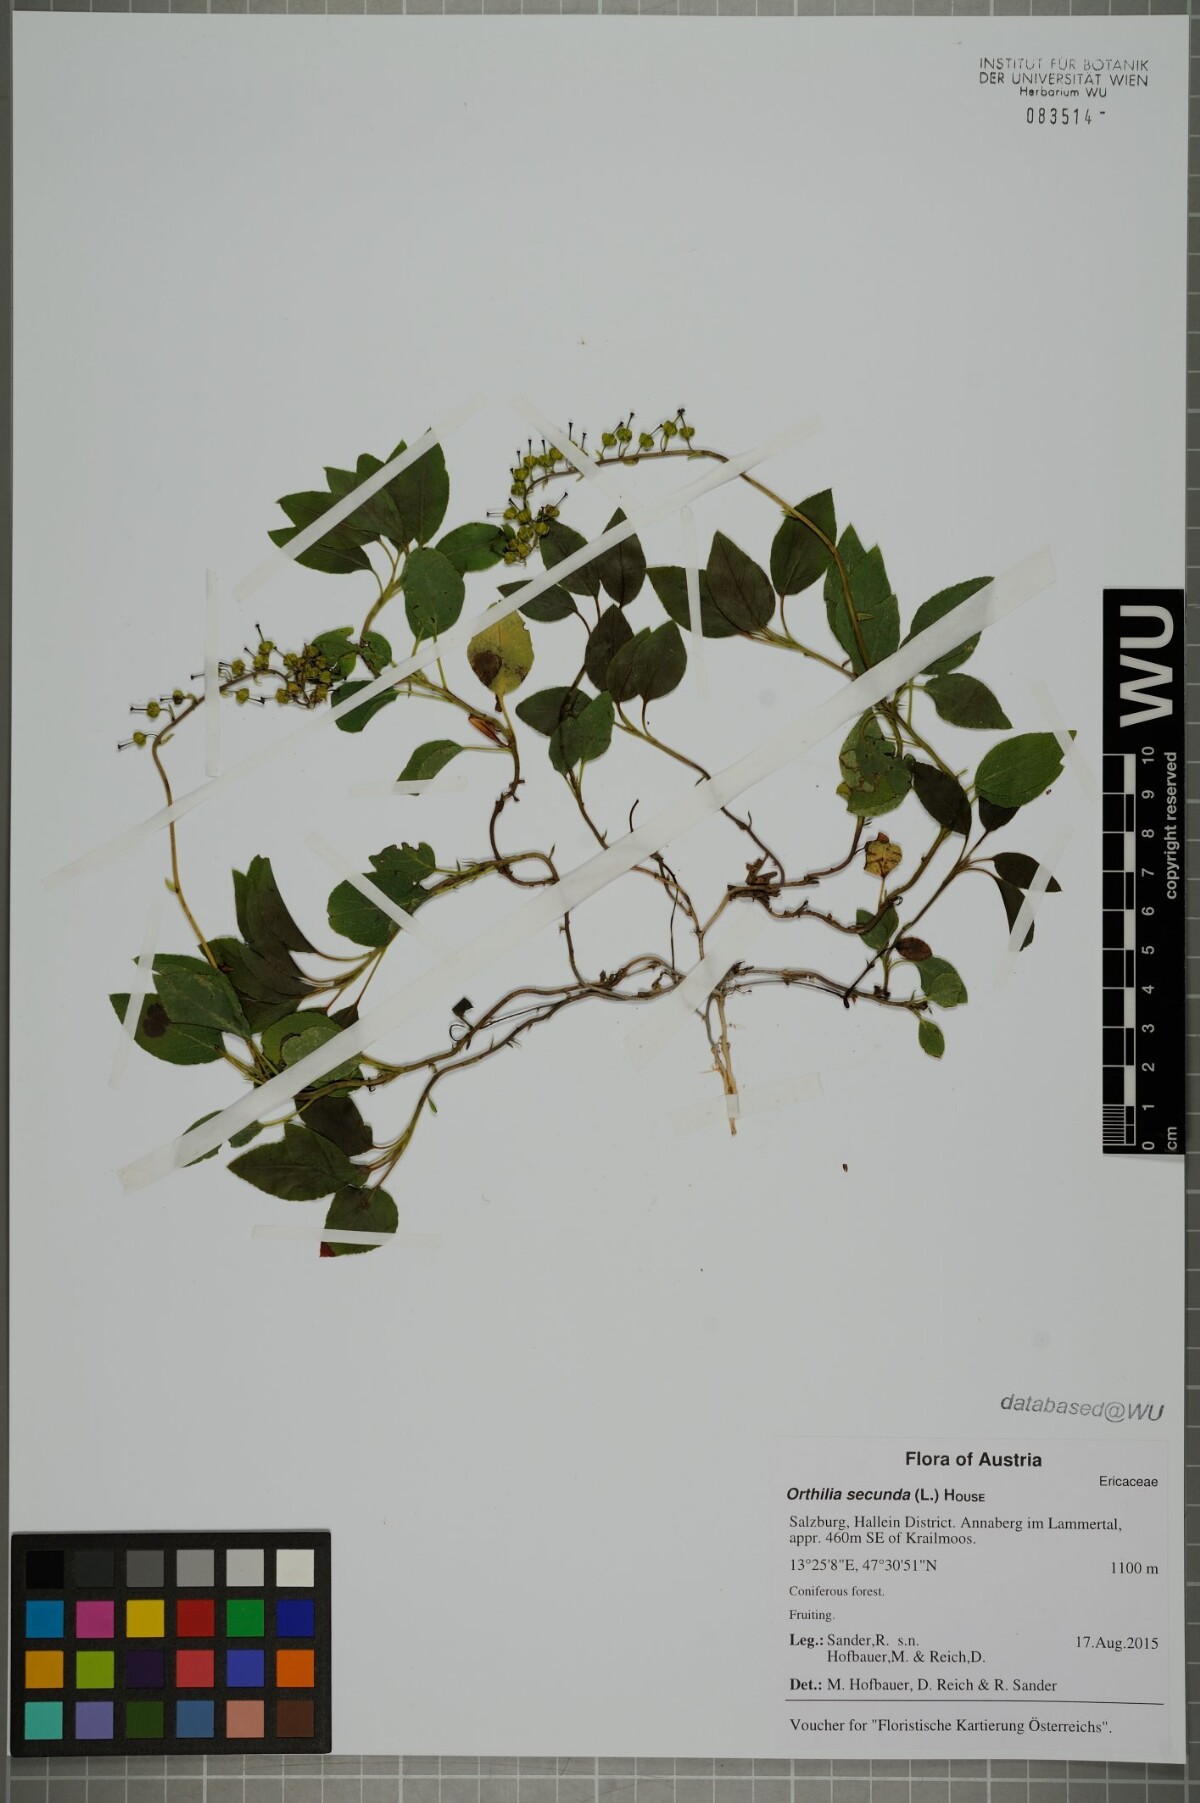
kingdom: Plantae
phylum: Tracheophyta
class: Magnoliopsida
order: Ericales
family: Ericaceae
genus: Orthilia
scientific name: Orthilia secunda
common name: One-sided orthilia
